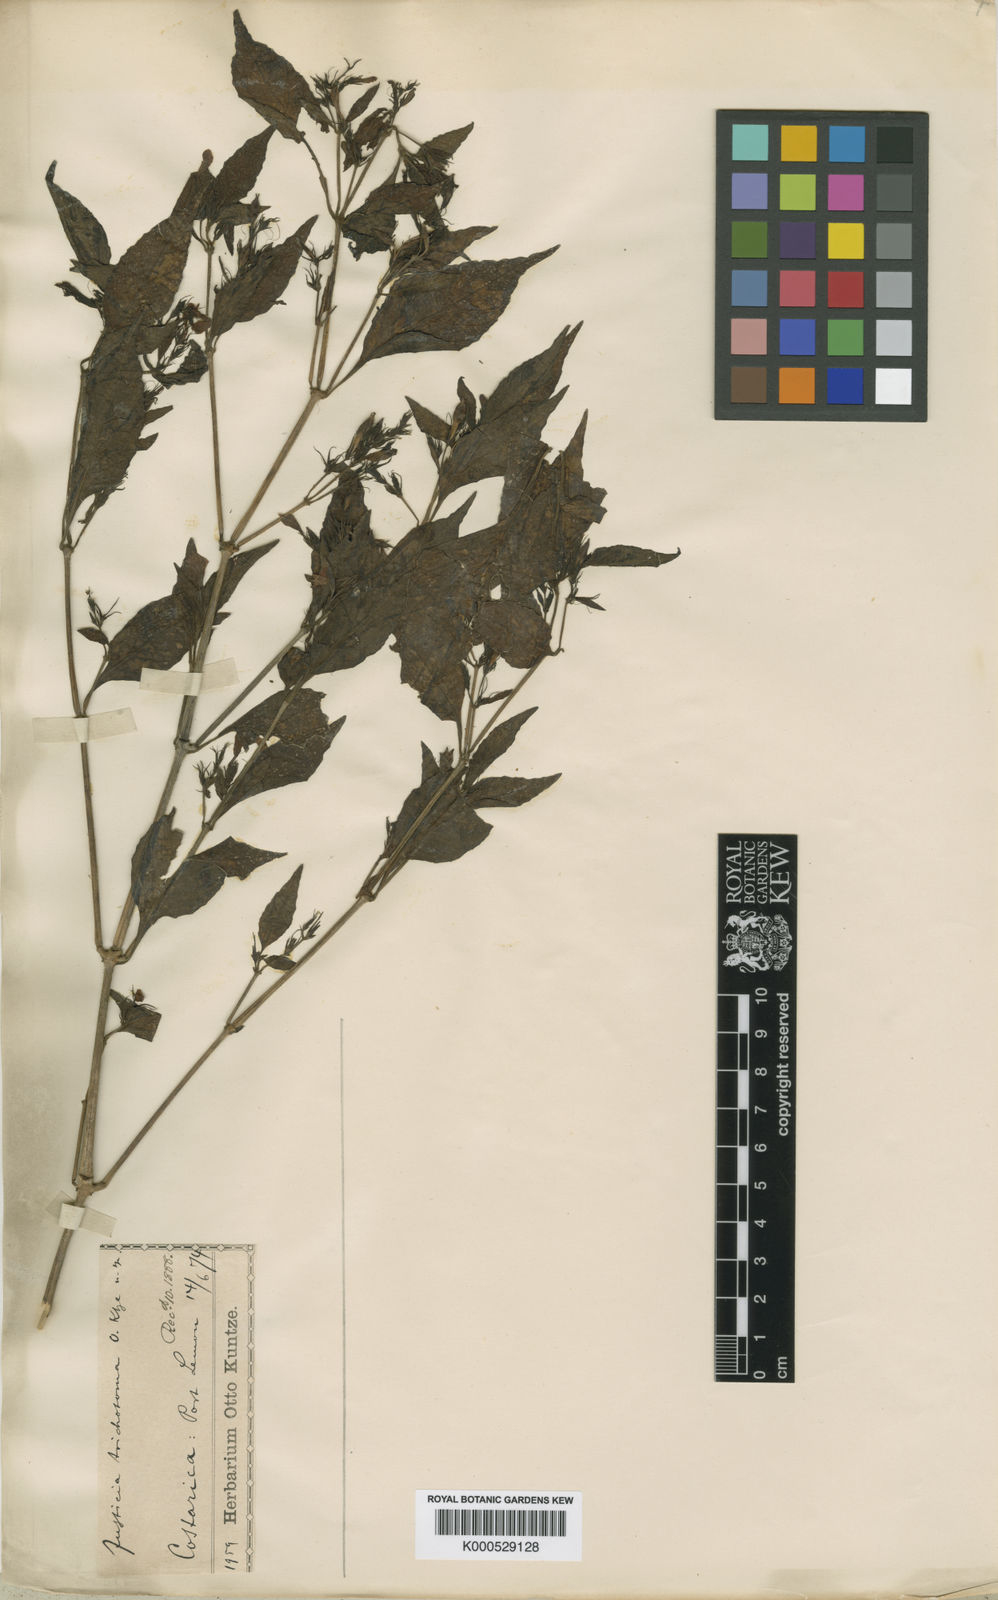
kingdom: Plantae
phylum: Tracheophyta
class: Magnoliopsida
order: Lamiales
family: Acanthaceae
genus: Justicia
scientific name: Justicia trichotoma
